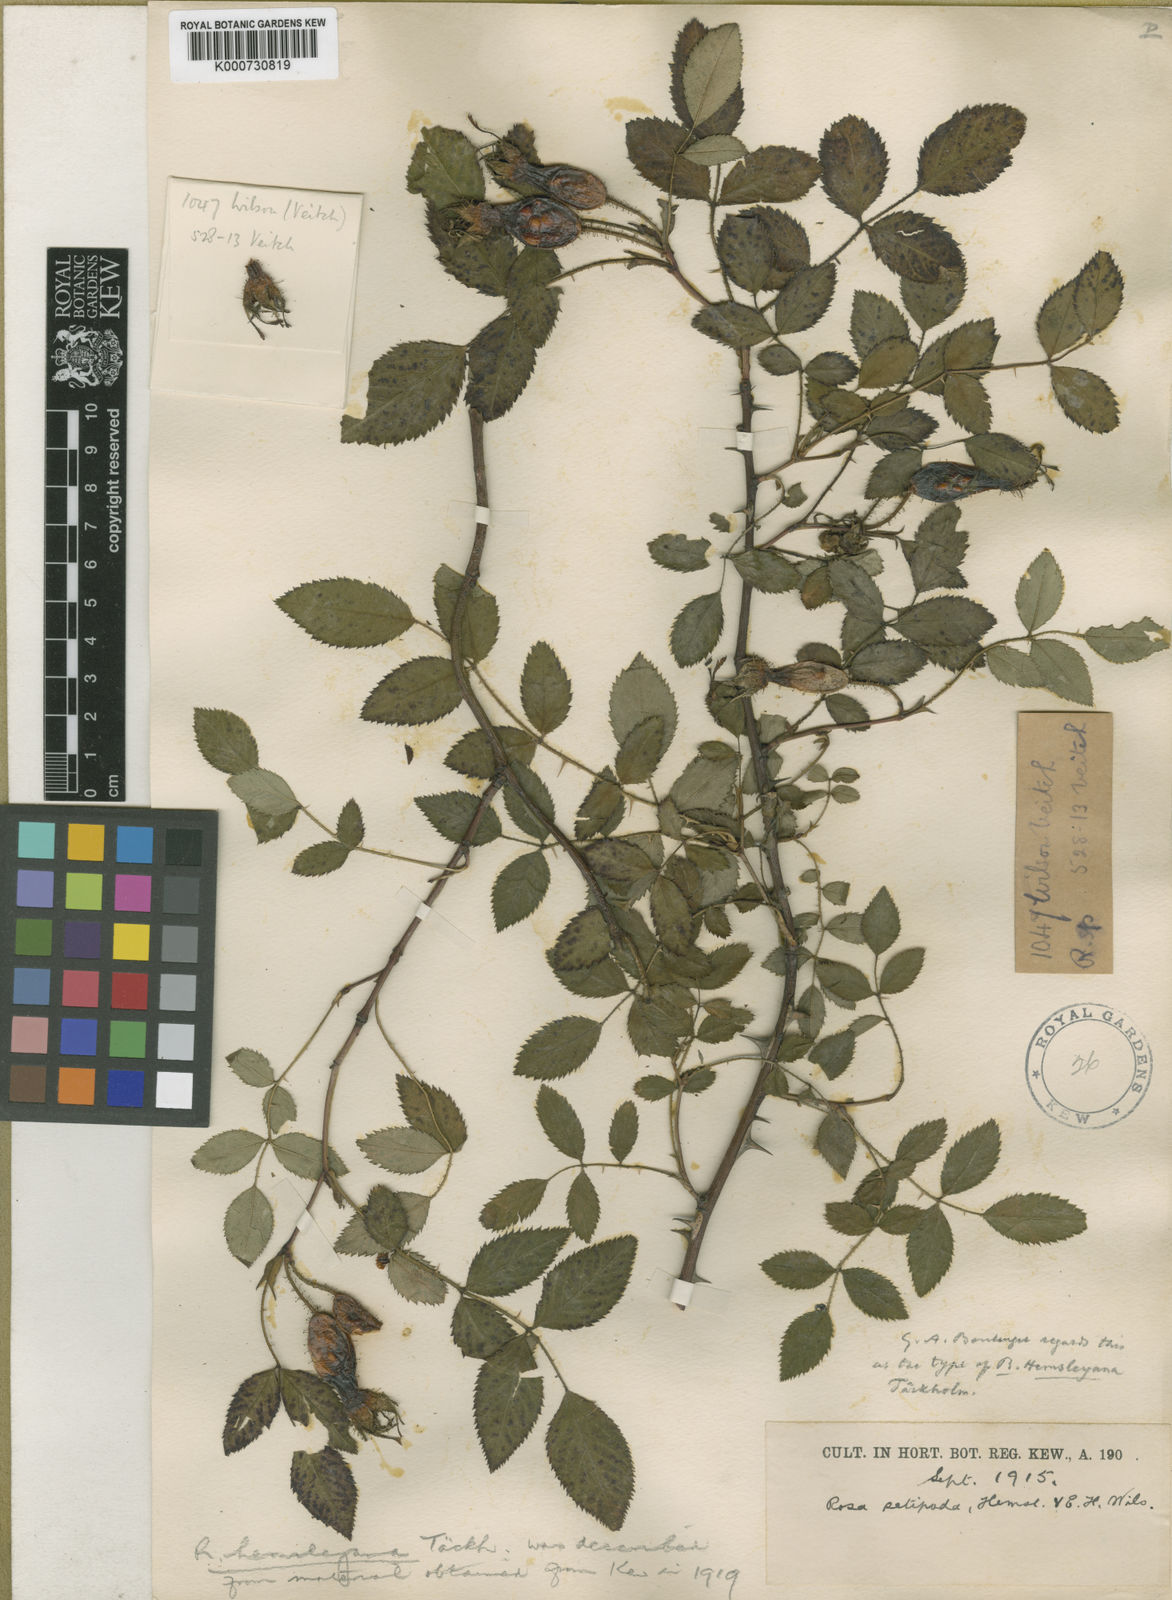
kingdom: Plantae
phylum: Tracheophyta
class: Magnoliopsida
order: Rosales
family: Rosaceae
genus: Rosa
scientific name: Rosa caudata
